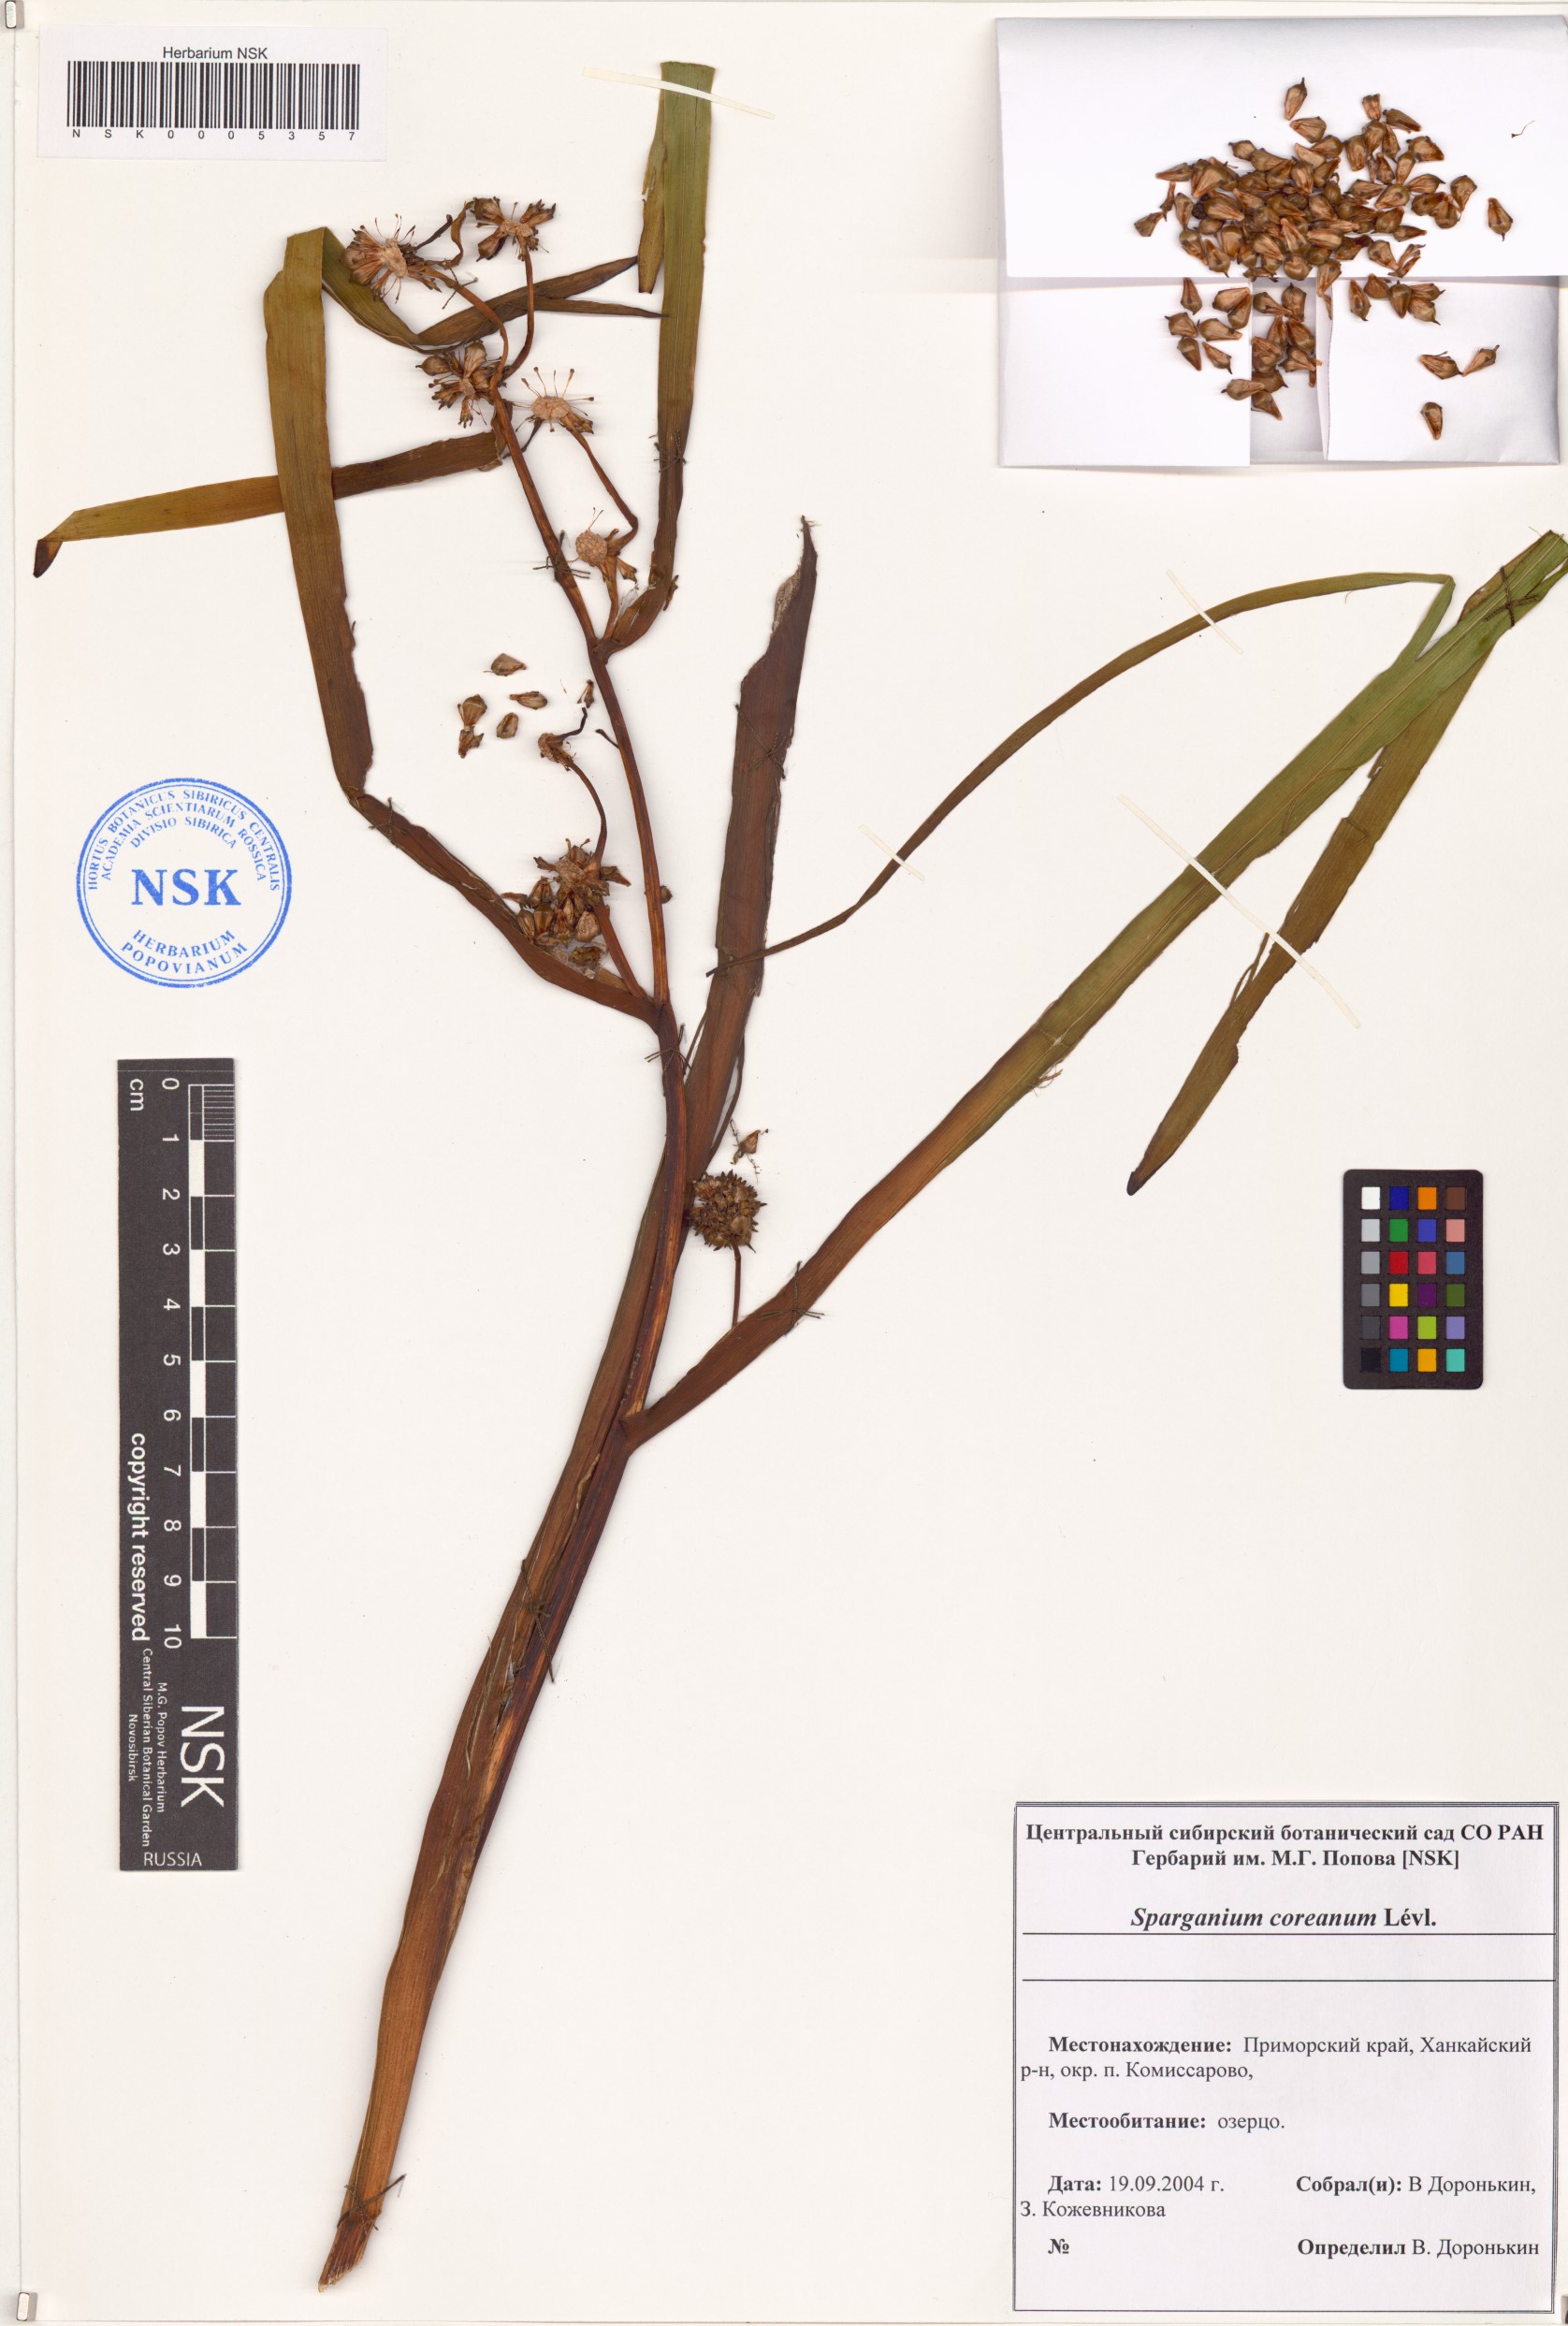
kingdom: Plantae
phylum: Tracheophyta
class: Liliopsida
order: Poales
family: Typhaceae
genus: Sparganium
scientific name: Sparganium eurycarpum
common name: Broad-fruited burreed
